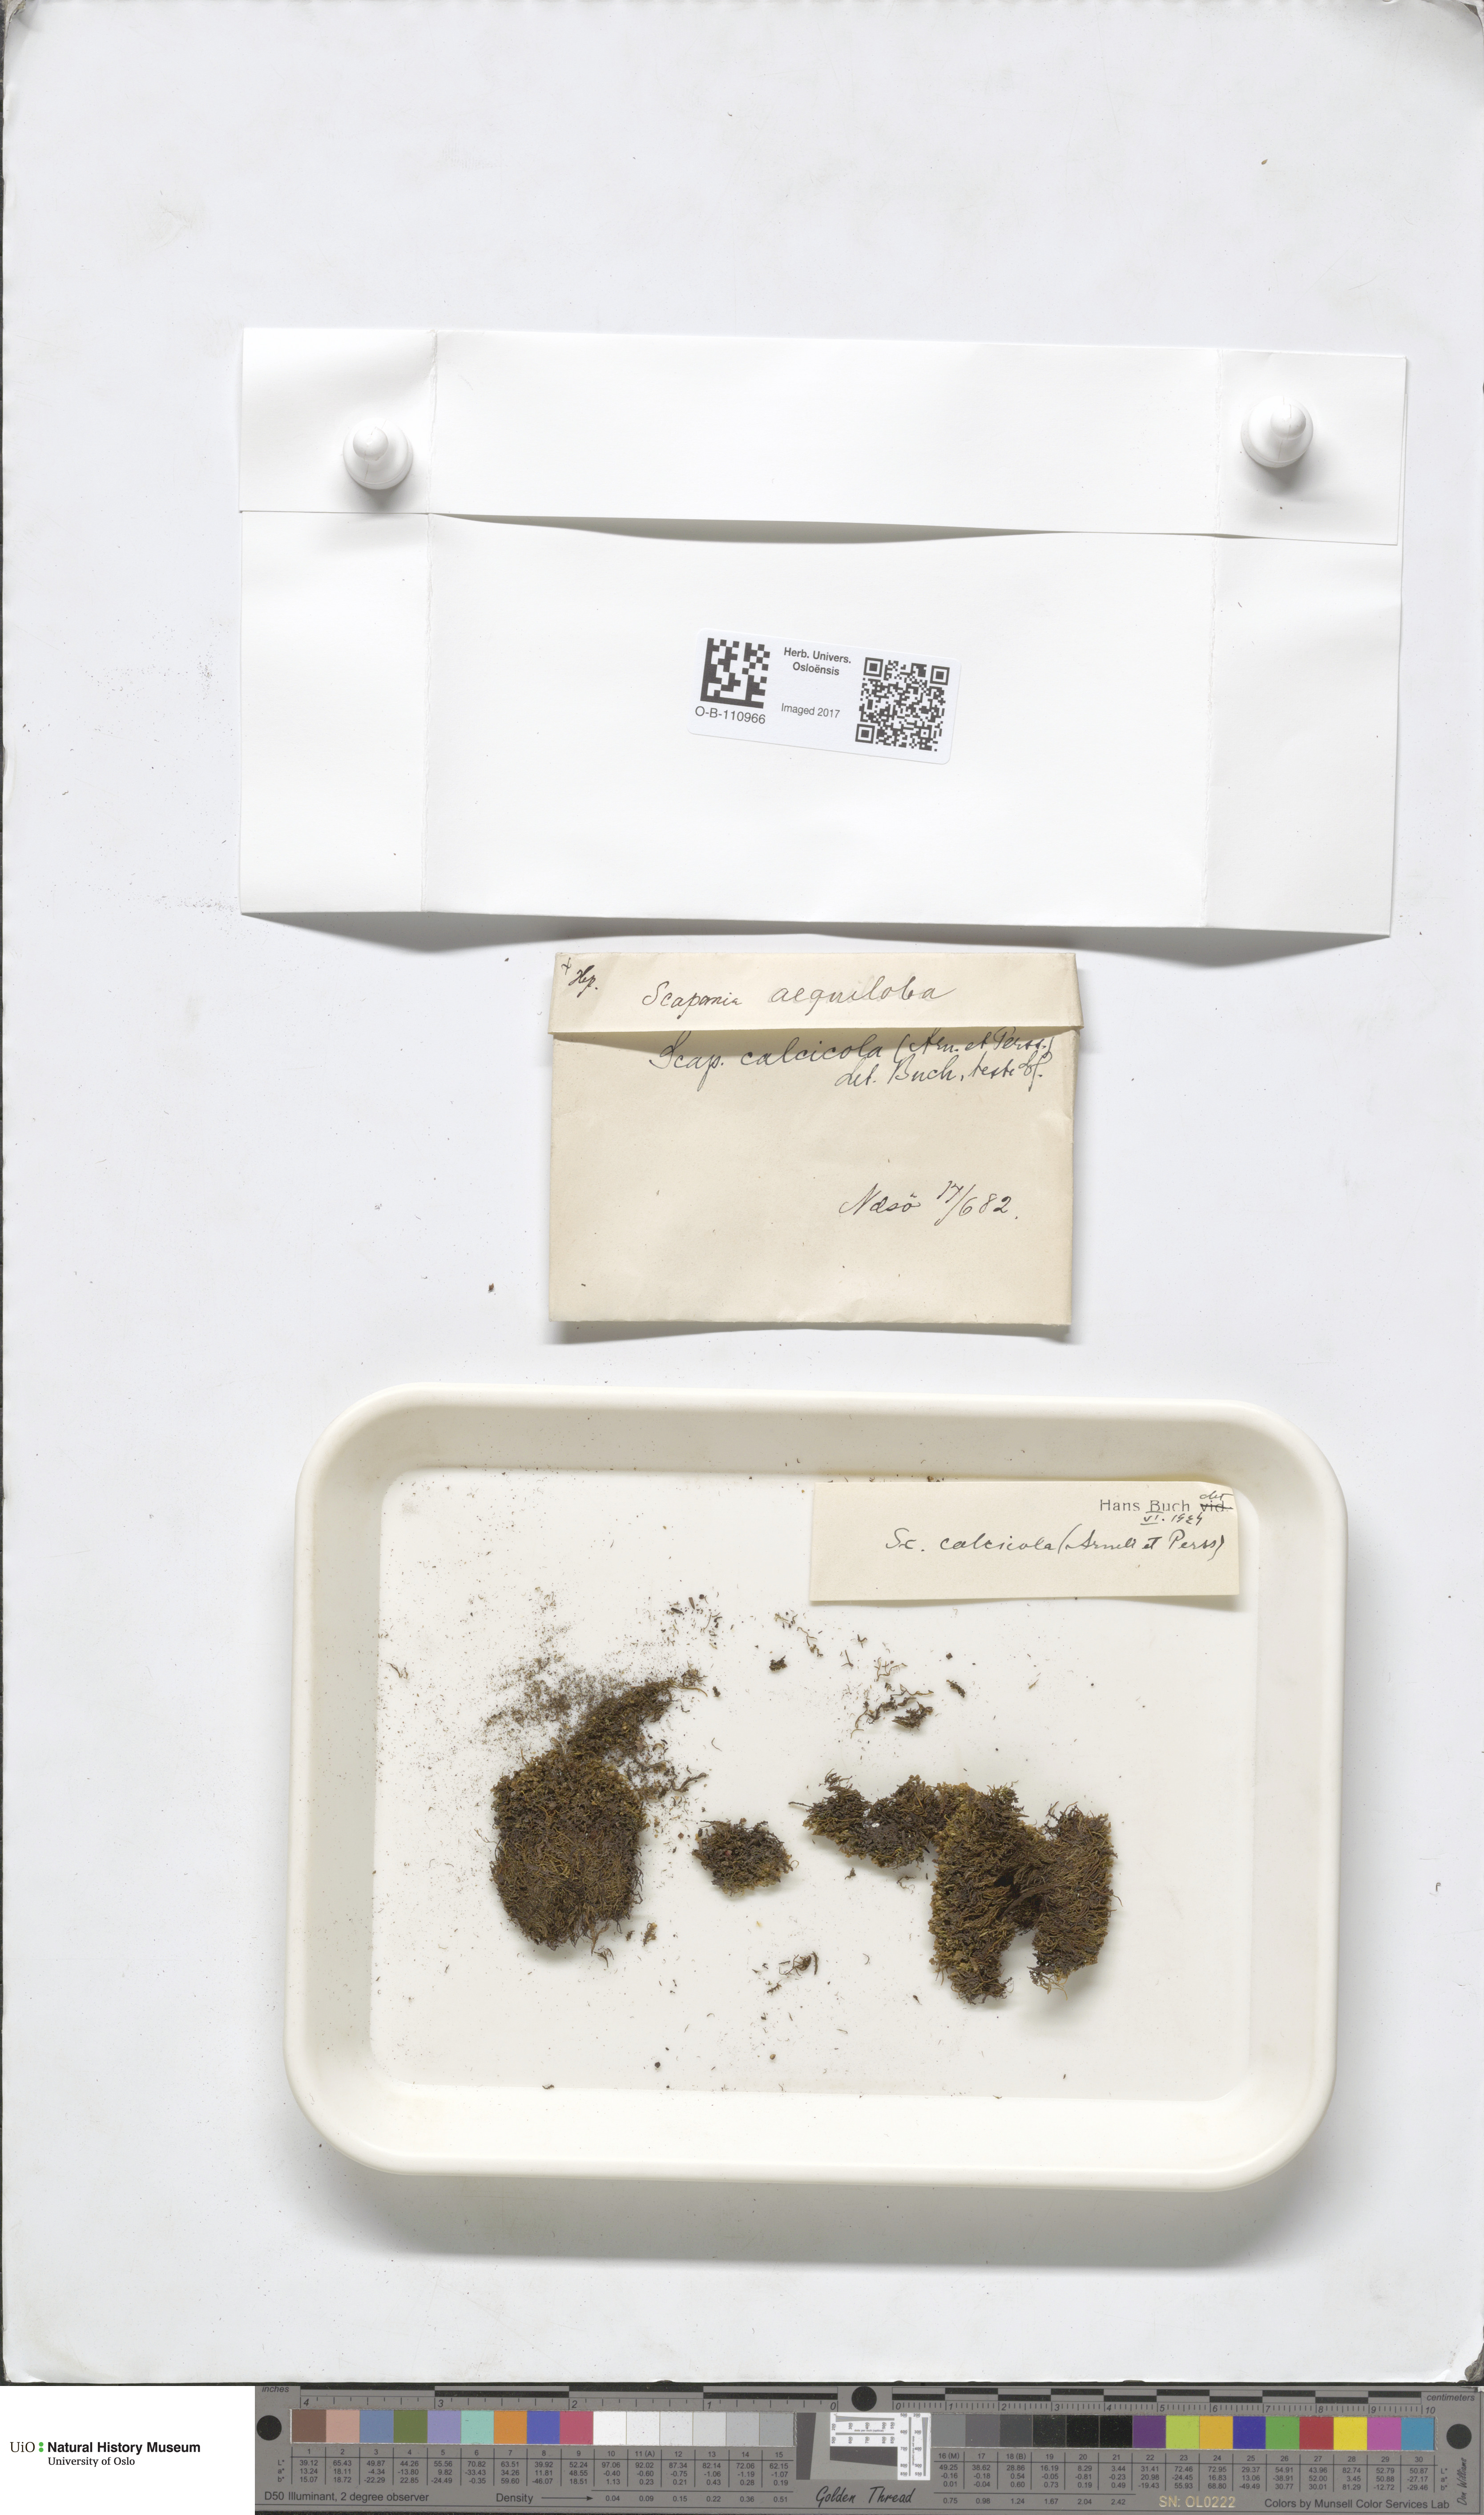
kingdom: Plantae
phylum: Marchantiophyta
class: Jungermanniopsida
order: Jungermanniales
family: Scapaniaceae
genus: Scapania
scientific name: Scapania calcicola
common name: Calcicolous earwort
